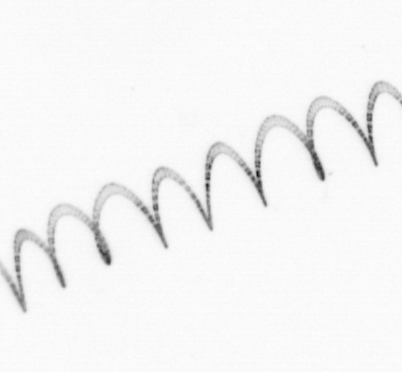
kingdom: Chromista
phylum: Ochrophyta
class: Bacillariophyceae
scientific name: Bacillariophyceae
